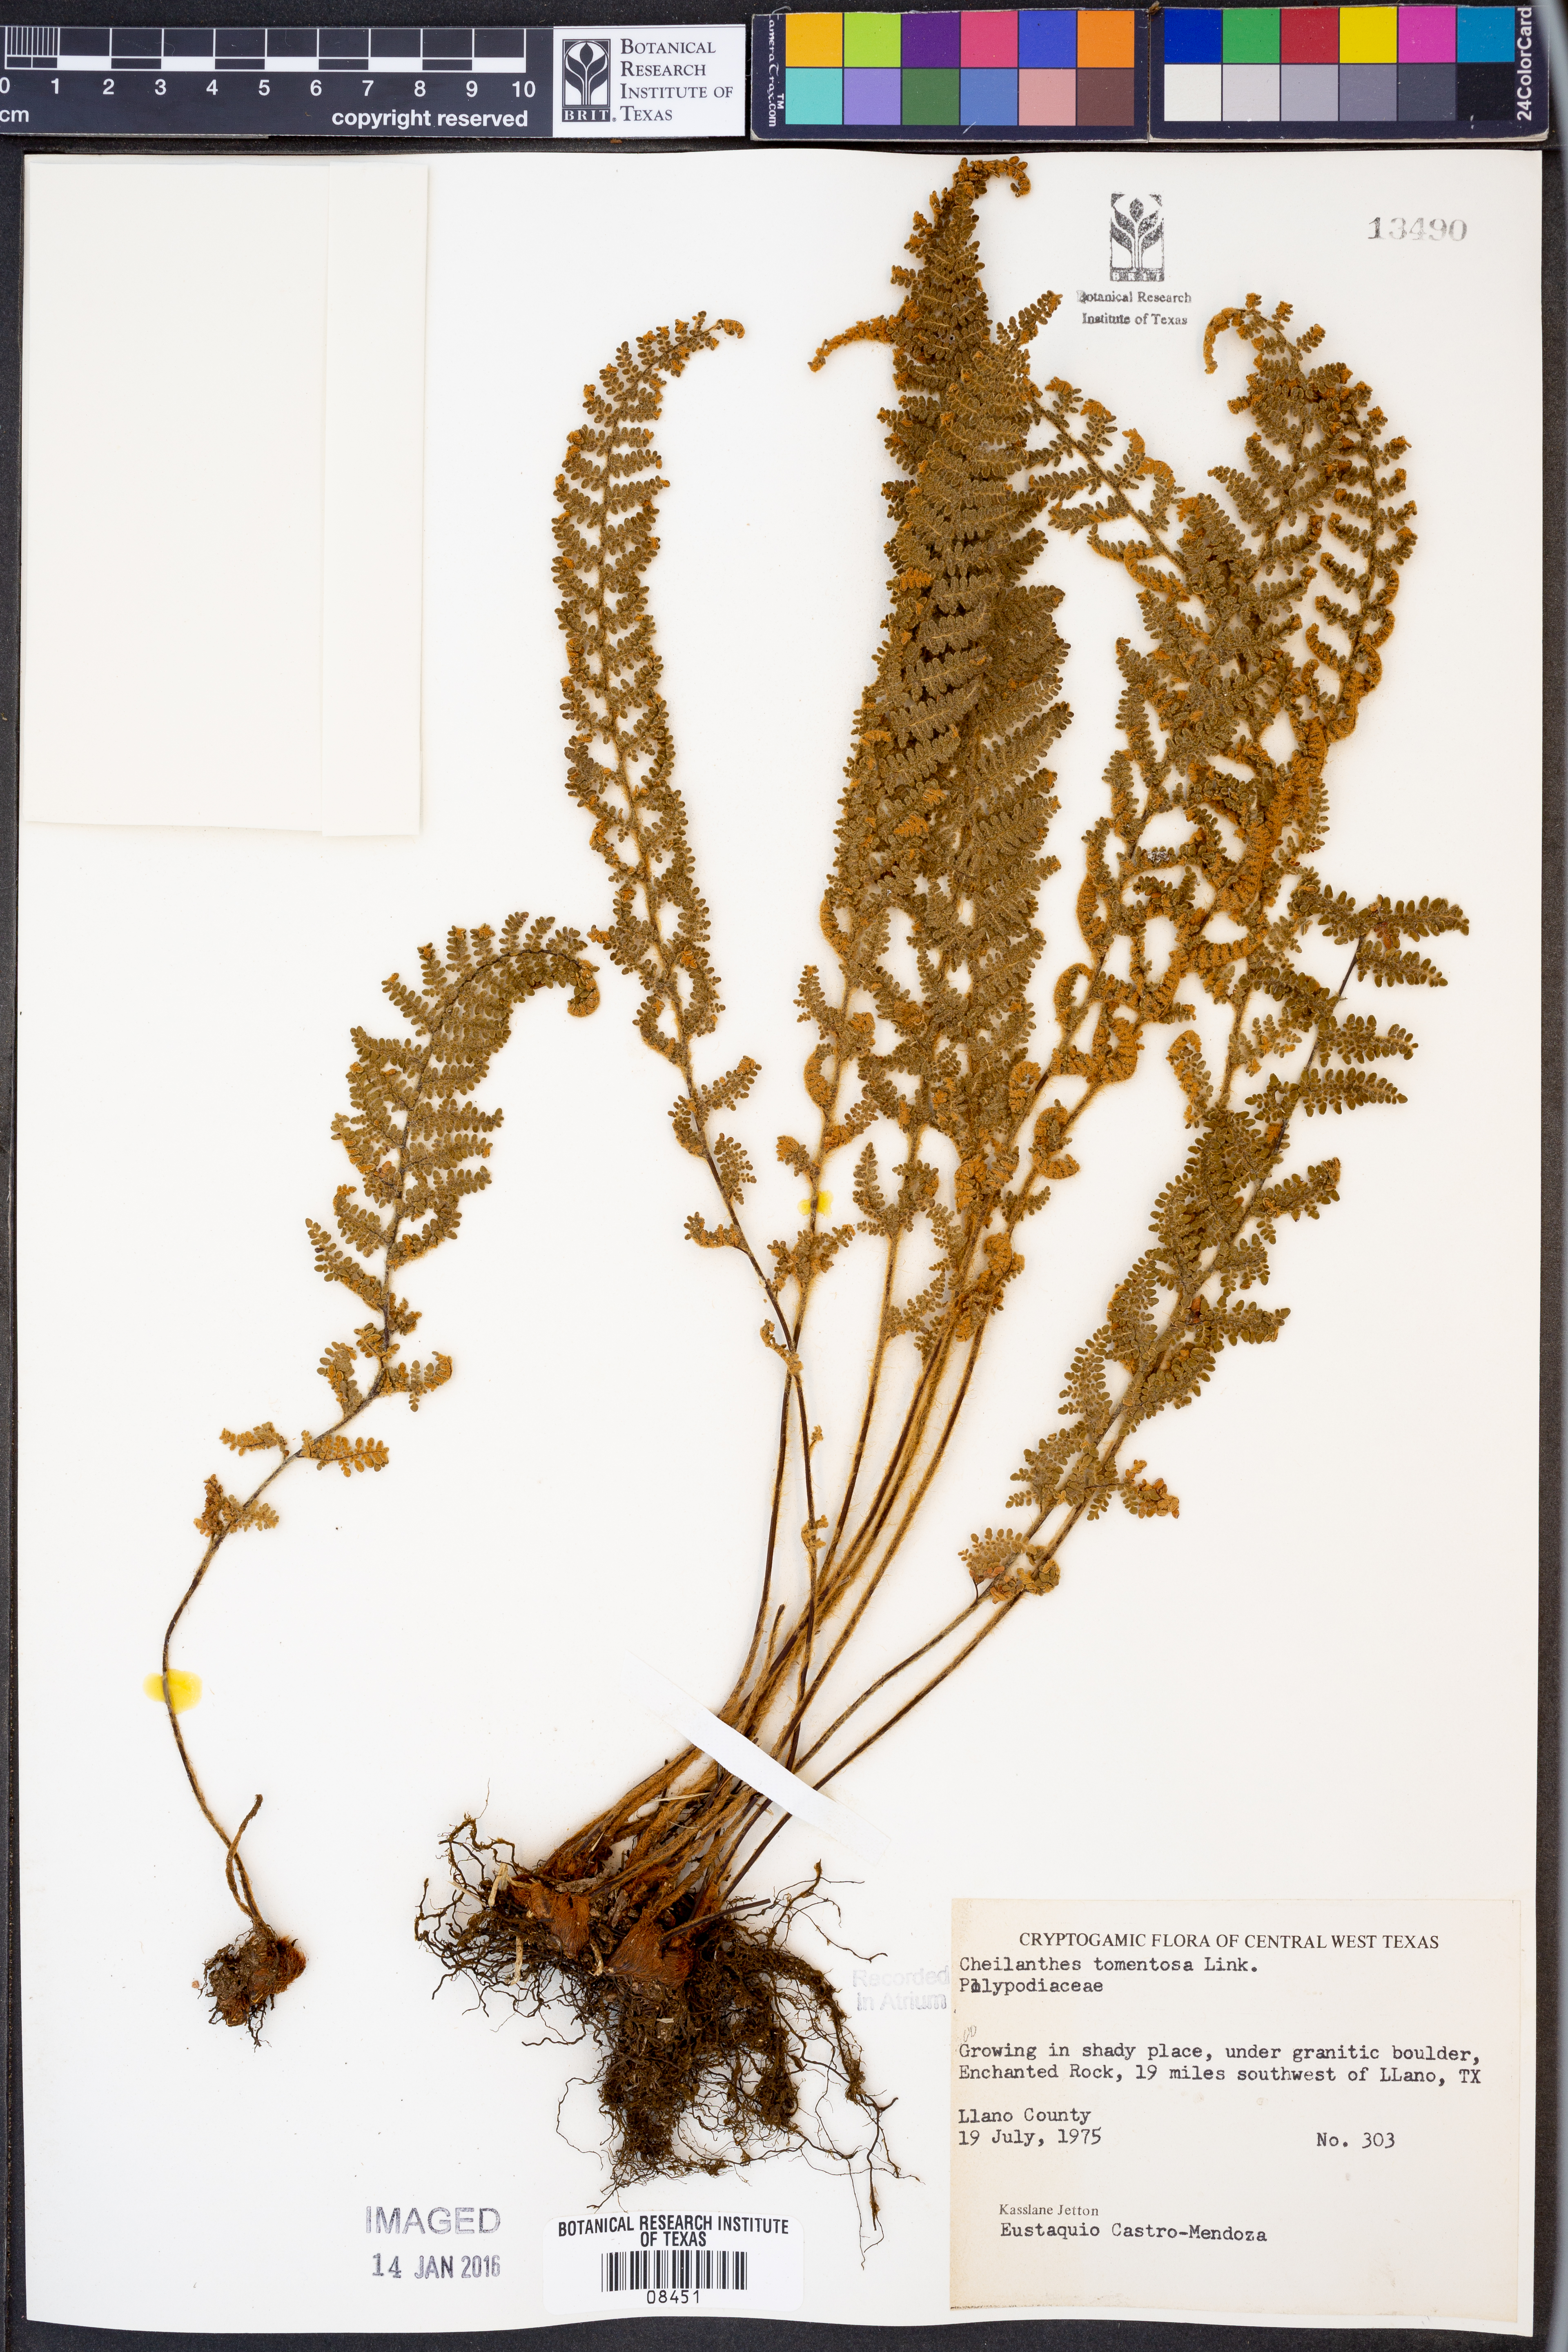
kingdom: Plantae
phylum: Tracheophyta
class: Polypodiopsida
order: Polypodiales
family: Pteridaceae
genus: Myriopteris
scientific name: Myriopteris tomentosa
